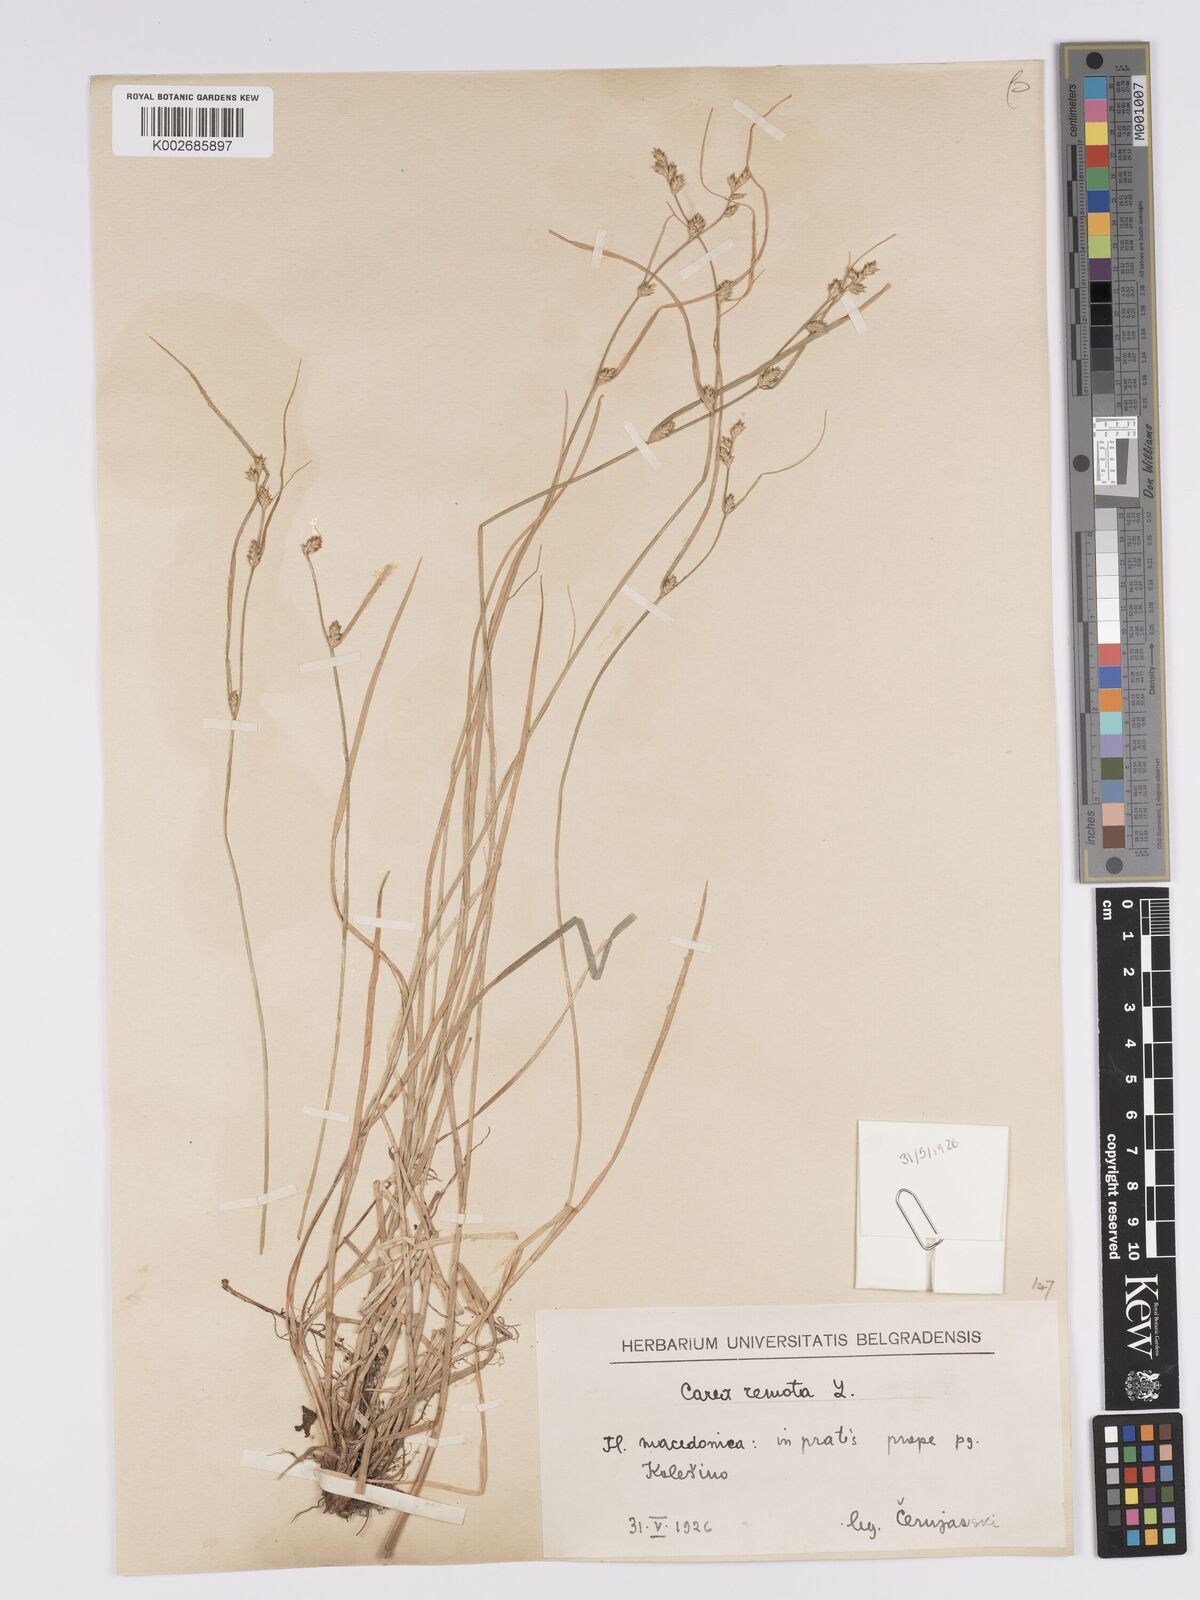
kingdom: Plantae
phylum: Tracheophyta
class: Liliopsida
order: Poales
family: Cyperaceae
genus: Carex
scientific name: Carex remota
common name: Remote sedge
